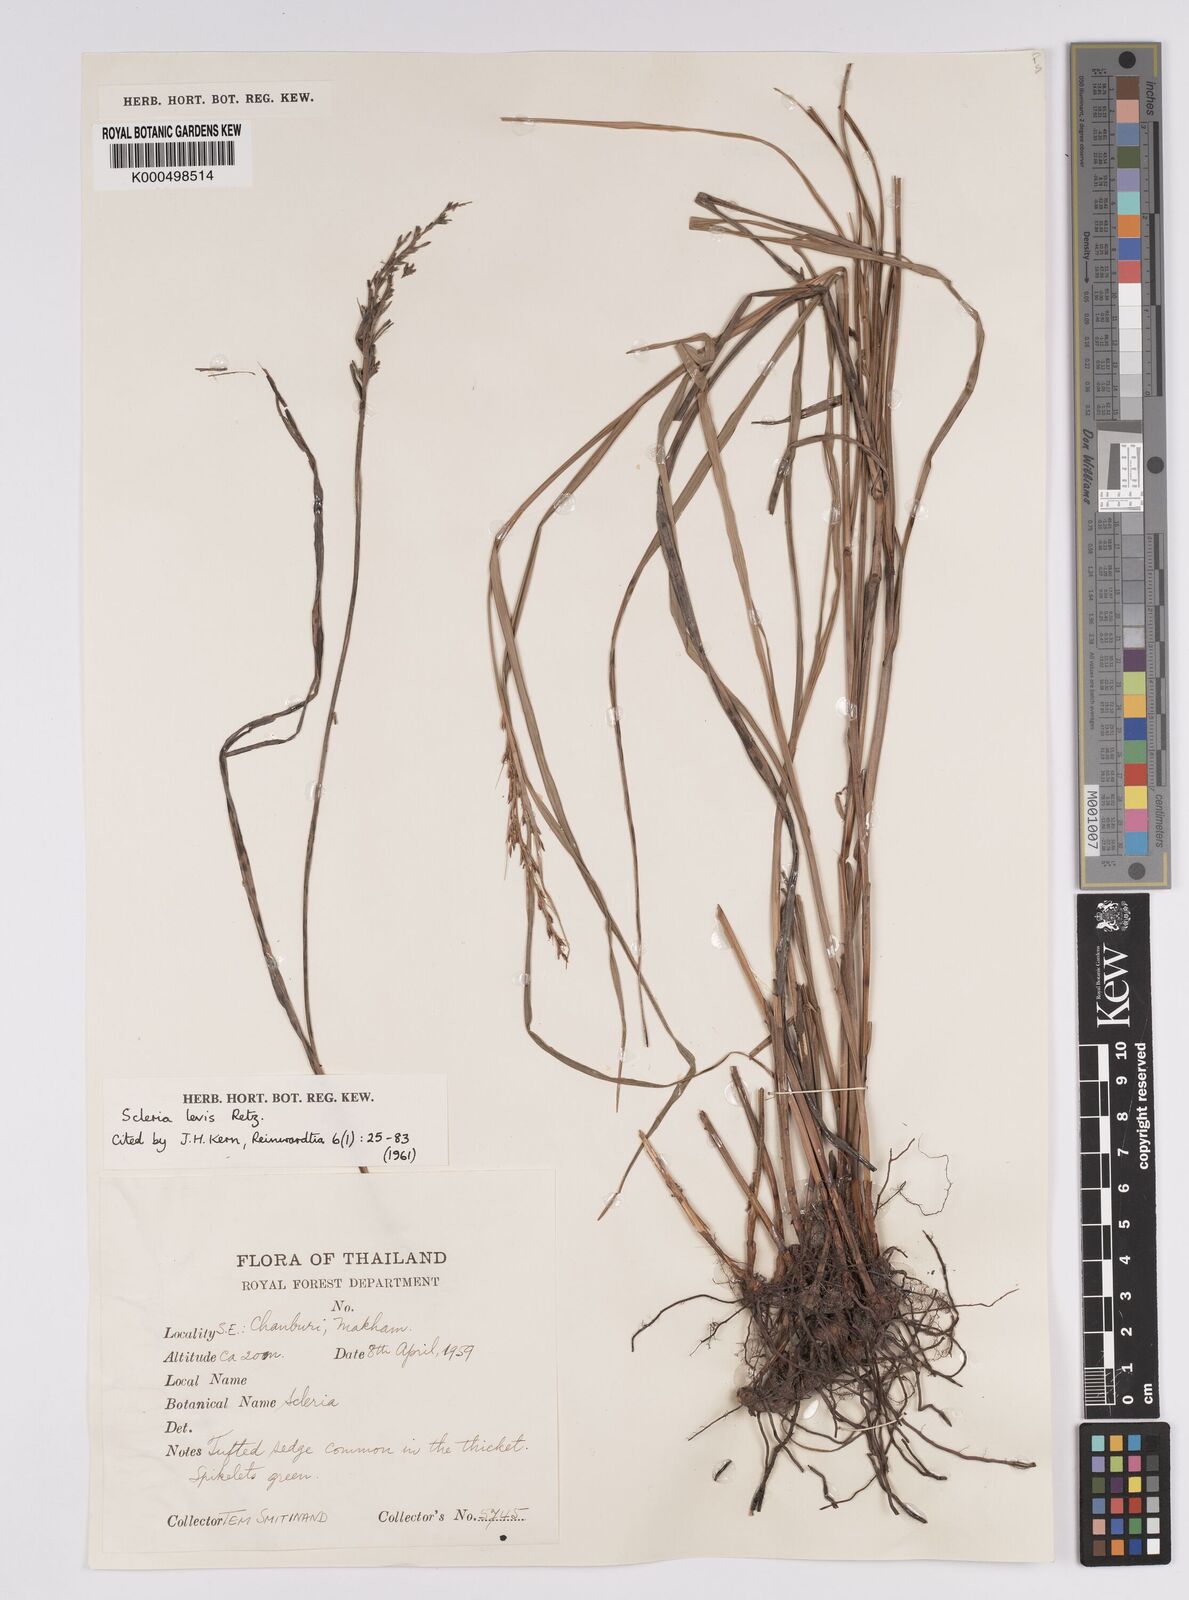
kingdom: Plantae
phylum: Tracheophyta
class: Liliopsida
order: Poales
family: Cyperaceae
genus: Scleria
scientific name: Scleria levis
